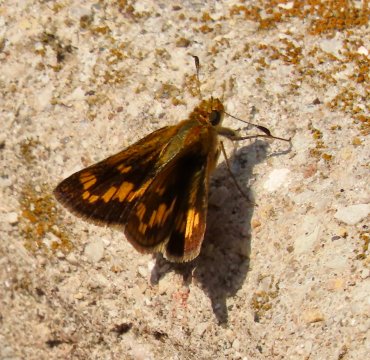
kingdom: Animalia
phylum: Arthropoda
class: Insecta
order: Lepidoptera
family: Hesperiidae
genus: Hylephila
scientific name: Hylephila phyleus
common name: Fiery Skipper
